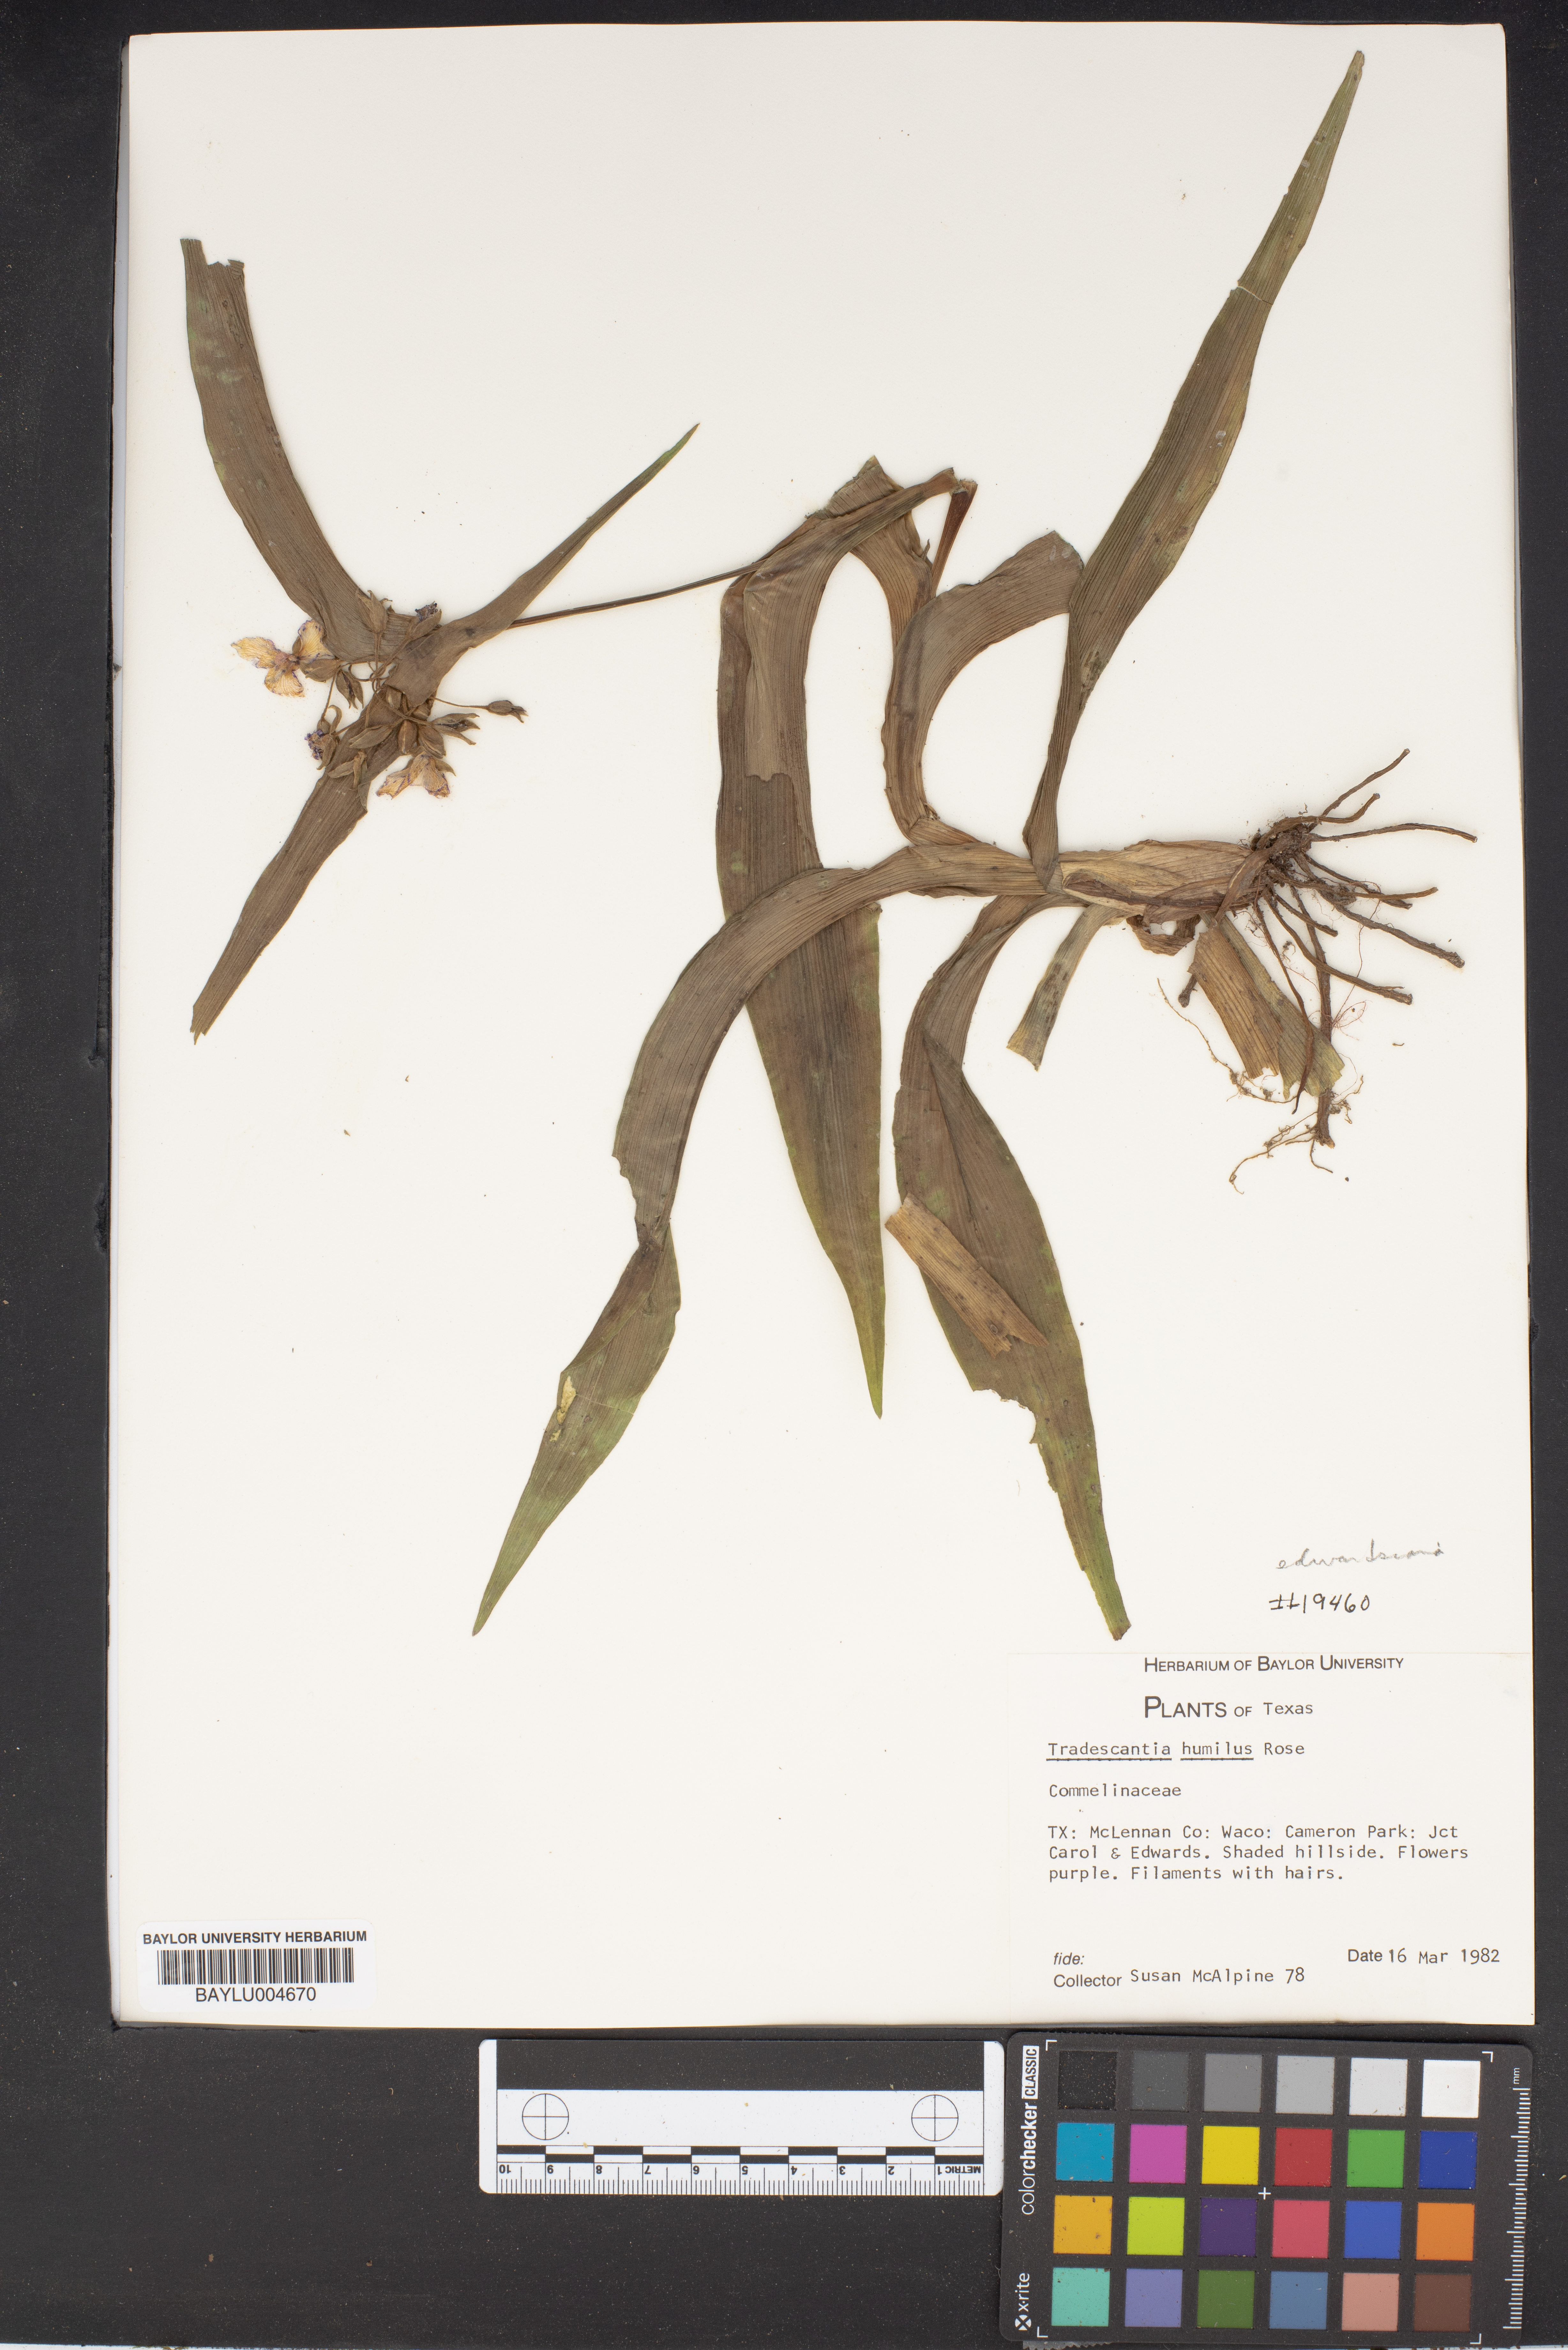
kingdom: Plantae
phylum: Tracheophyta
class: Liliopsida
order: Commelinales
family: Commelinaceae
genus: Tradescantia
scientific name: Tradescantia humilis
